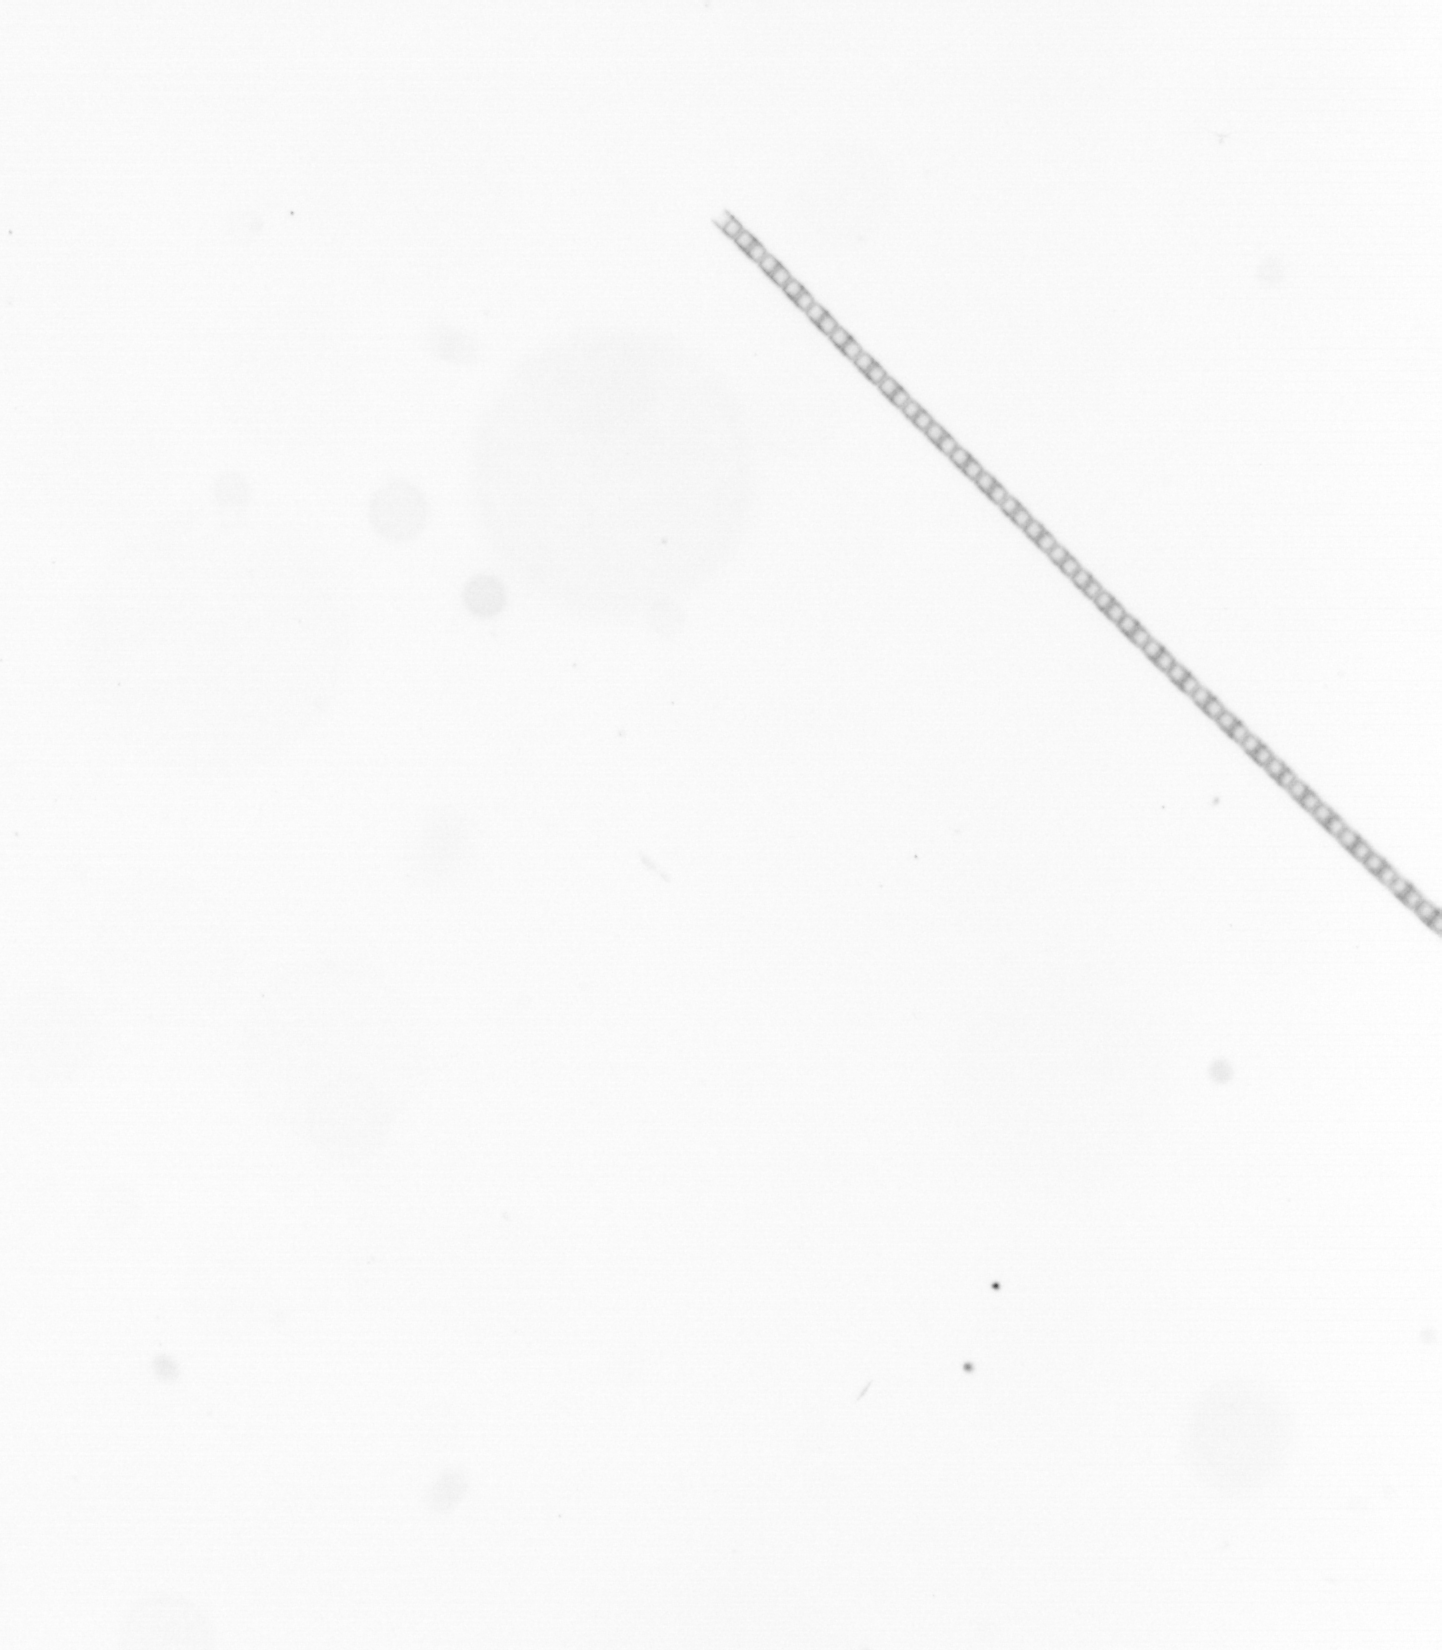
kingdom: Chromista
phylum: Ochrophyta
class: Bacillariophyceae
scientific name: Bacillariophyceae
